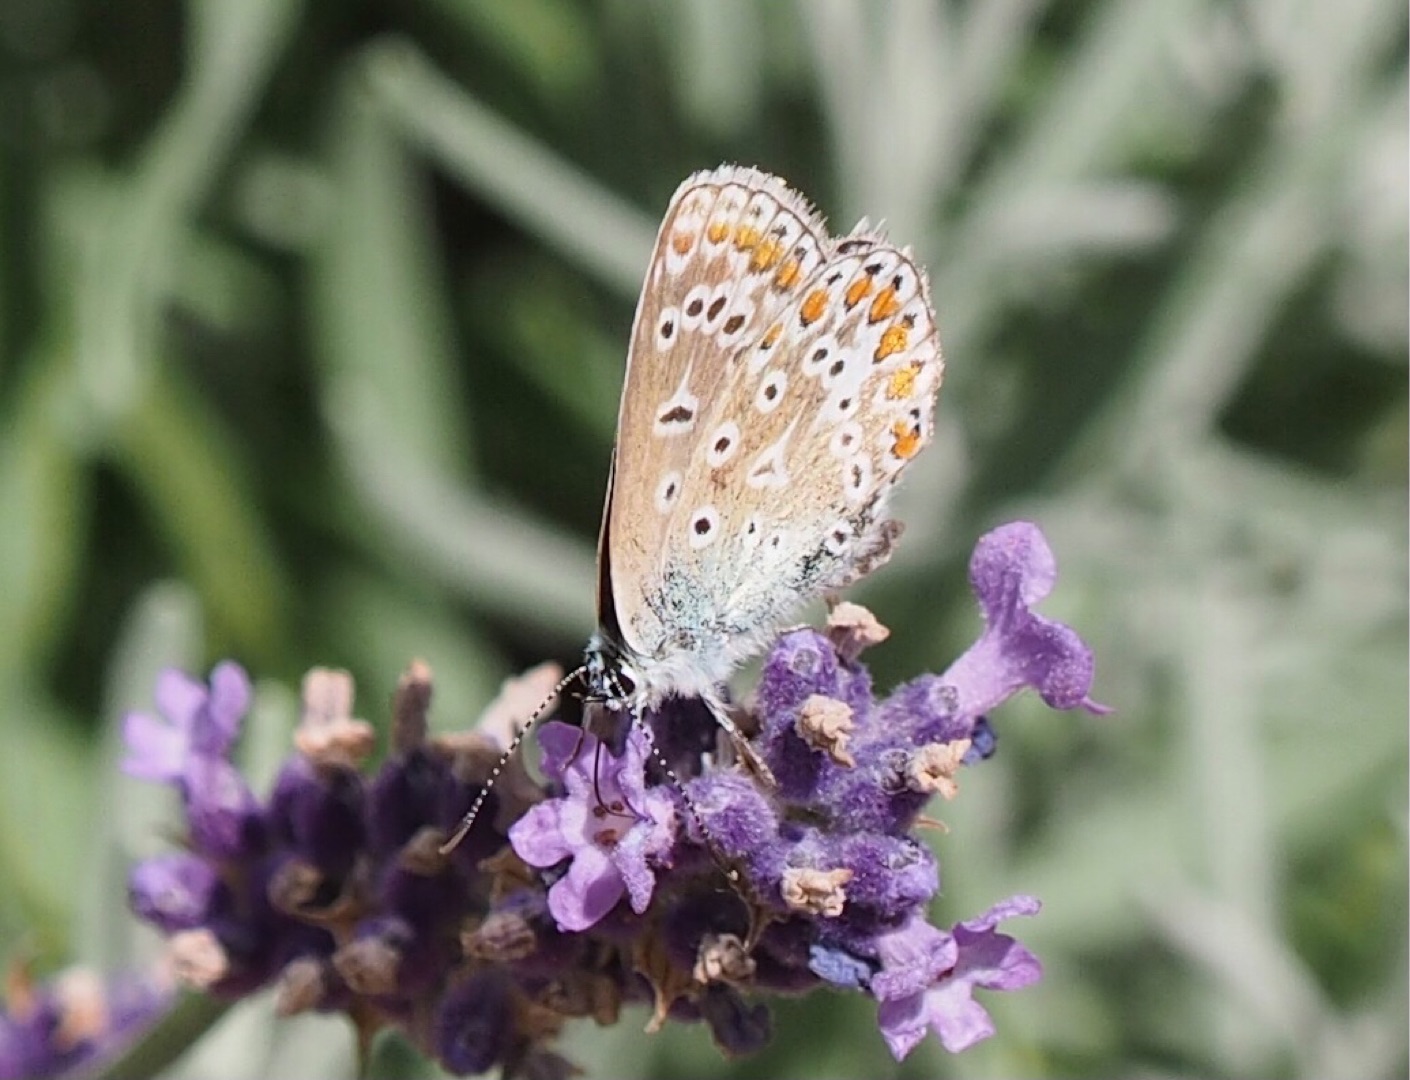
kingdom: Animalia
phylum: Arthropoda
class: Insecta
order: Lepidoptera
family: Lycaenidae
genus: Polyommatus
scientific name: Polyommatus icarus
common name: Almindelig blåfugl
